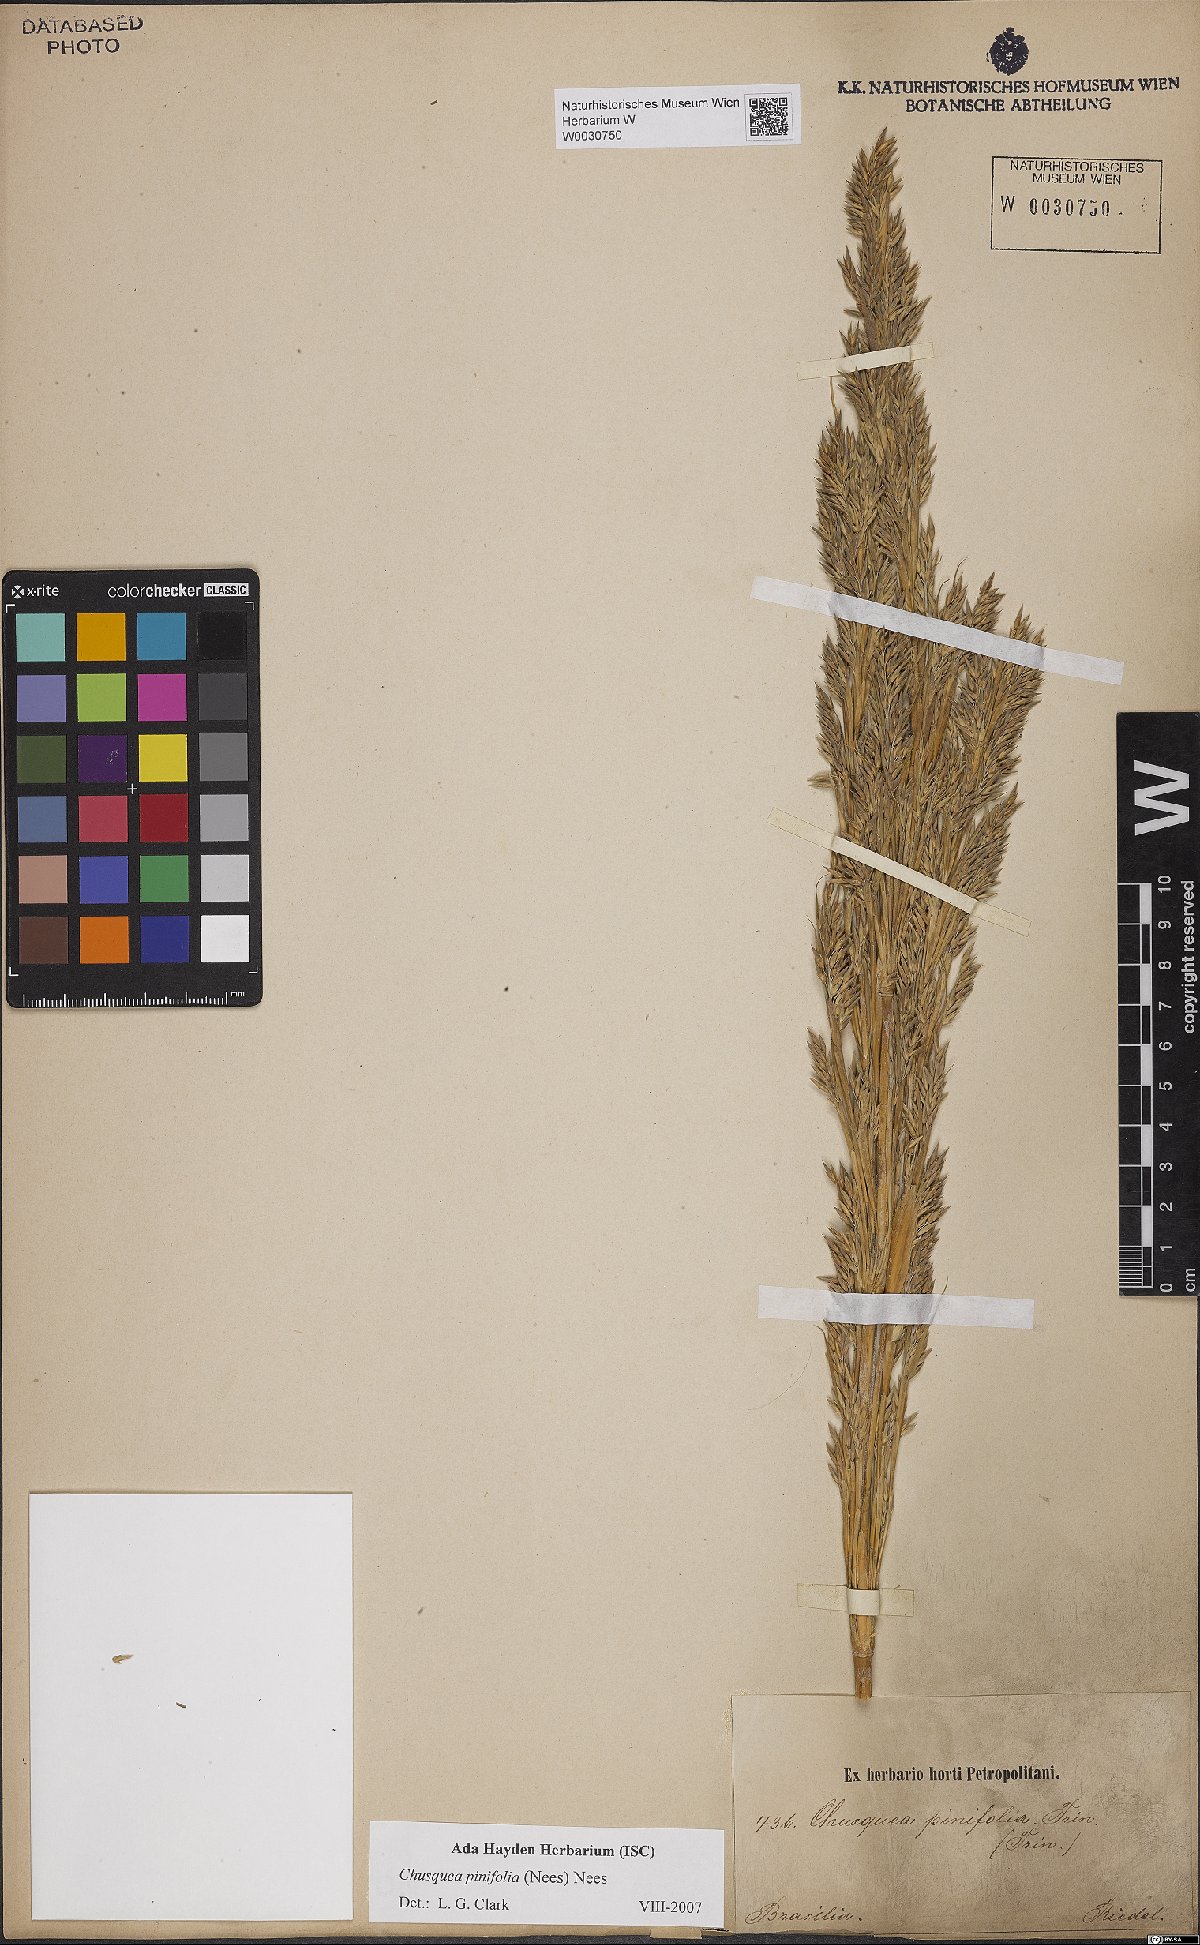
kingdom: Plantae
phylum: Tracheophyta
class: Liliopsida
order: Poales
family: Poaceae
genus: Chusquea
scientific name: Chusquea pinifolia
